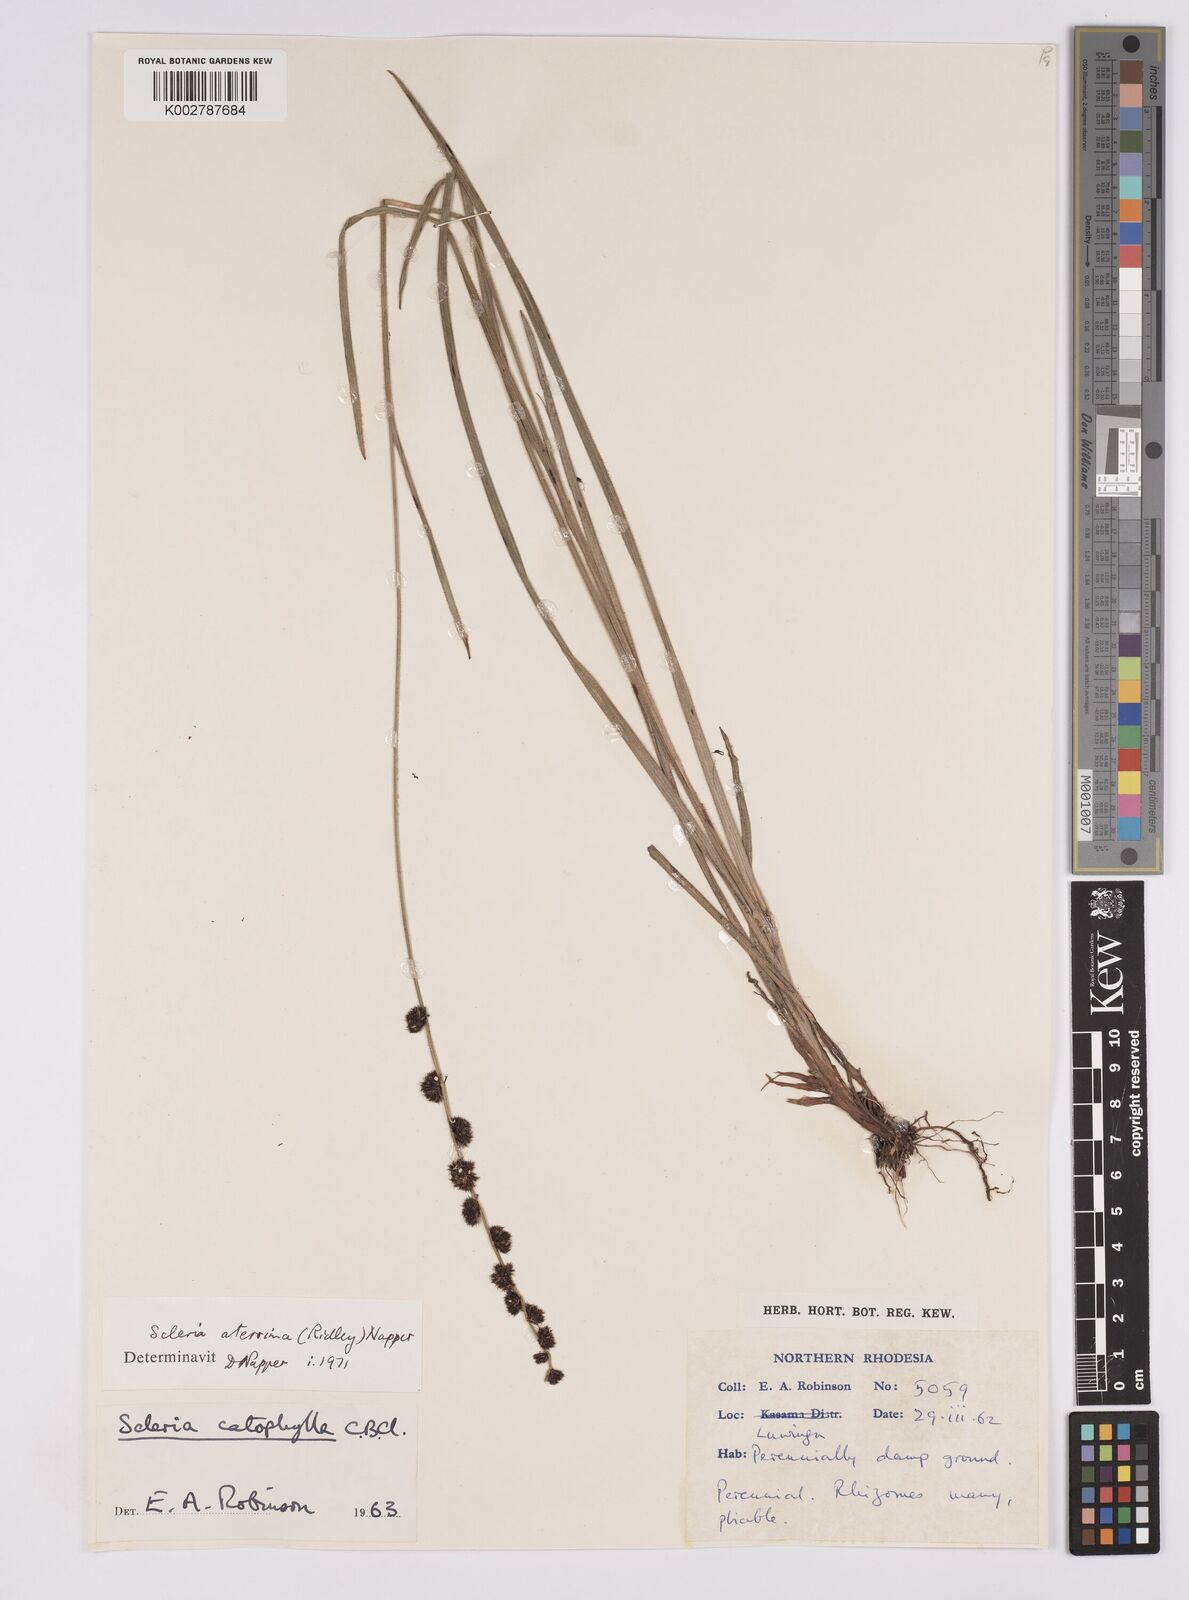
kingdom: Plantae
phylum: Tracheophyta
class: Liliopsida
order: Poales
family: Cyperaceae
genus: Scleria
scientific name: Scleria catophylla
